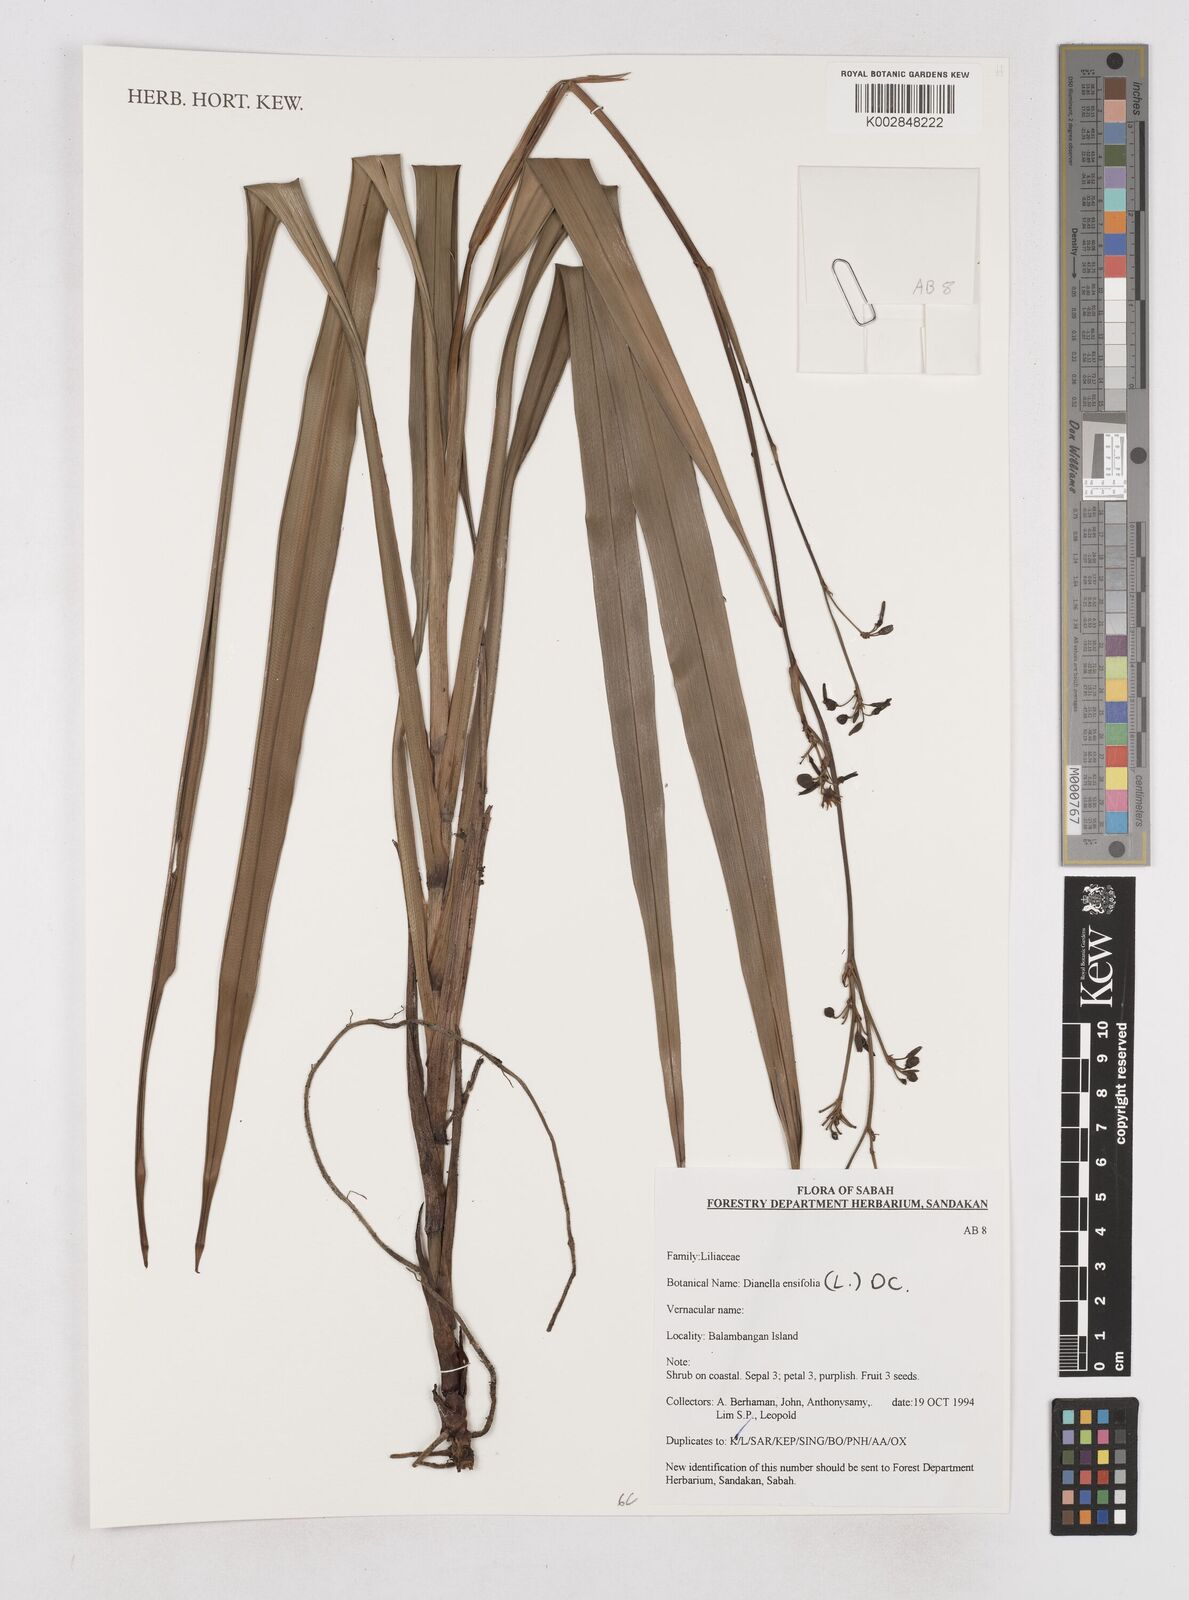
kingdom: Plantae
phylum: Tracheophyta
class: Liliopsida
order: Asparagales
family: Asphodelaceae
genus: Dianella
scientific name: Dianella ensifolia
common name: New zealand lilyplant
